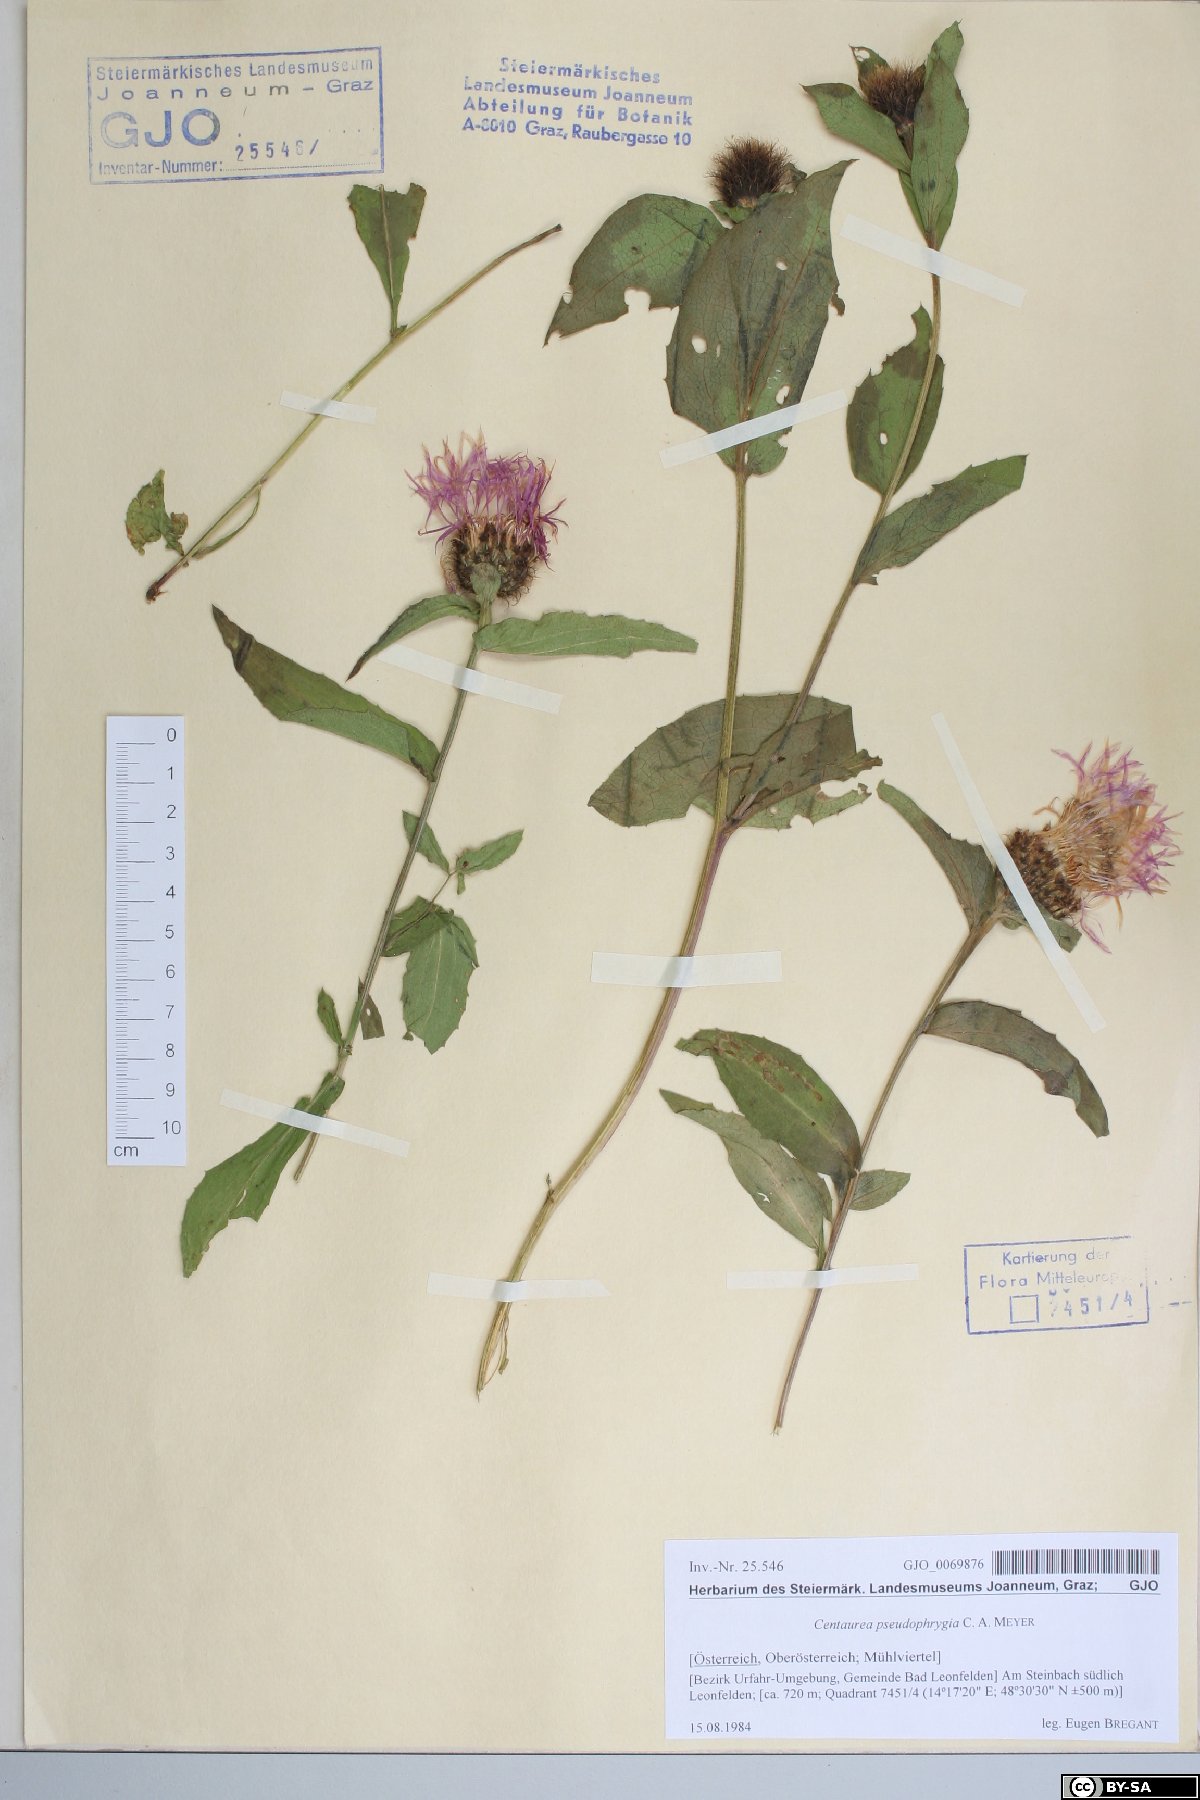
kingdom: Plantae
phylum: Tracheophyta
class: Magnoliopsida
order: Asterales
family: Asteraceae
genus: Centaurea
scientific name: Centaurea pseudophrygia
